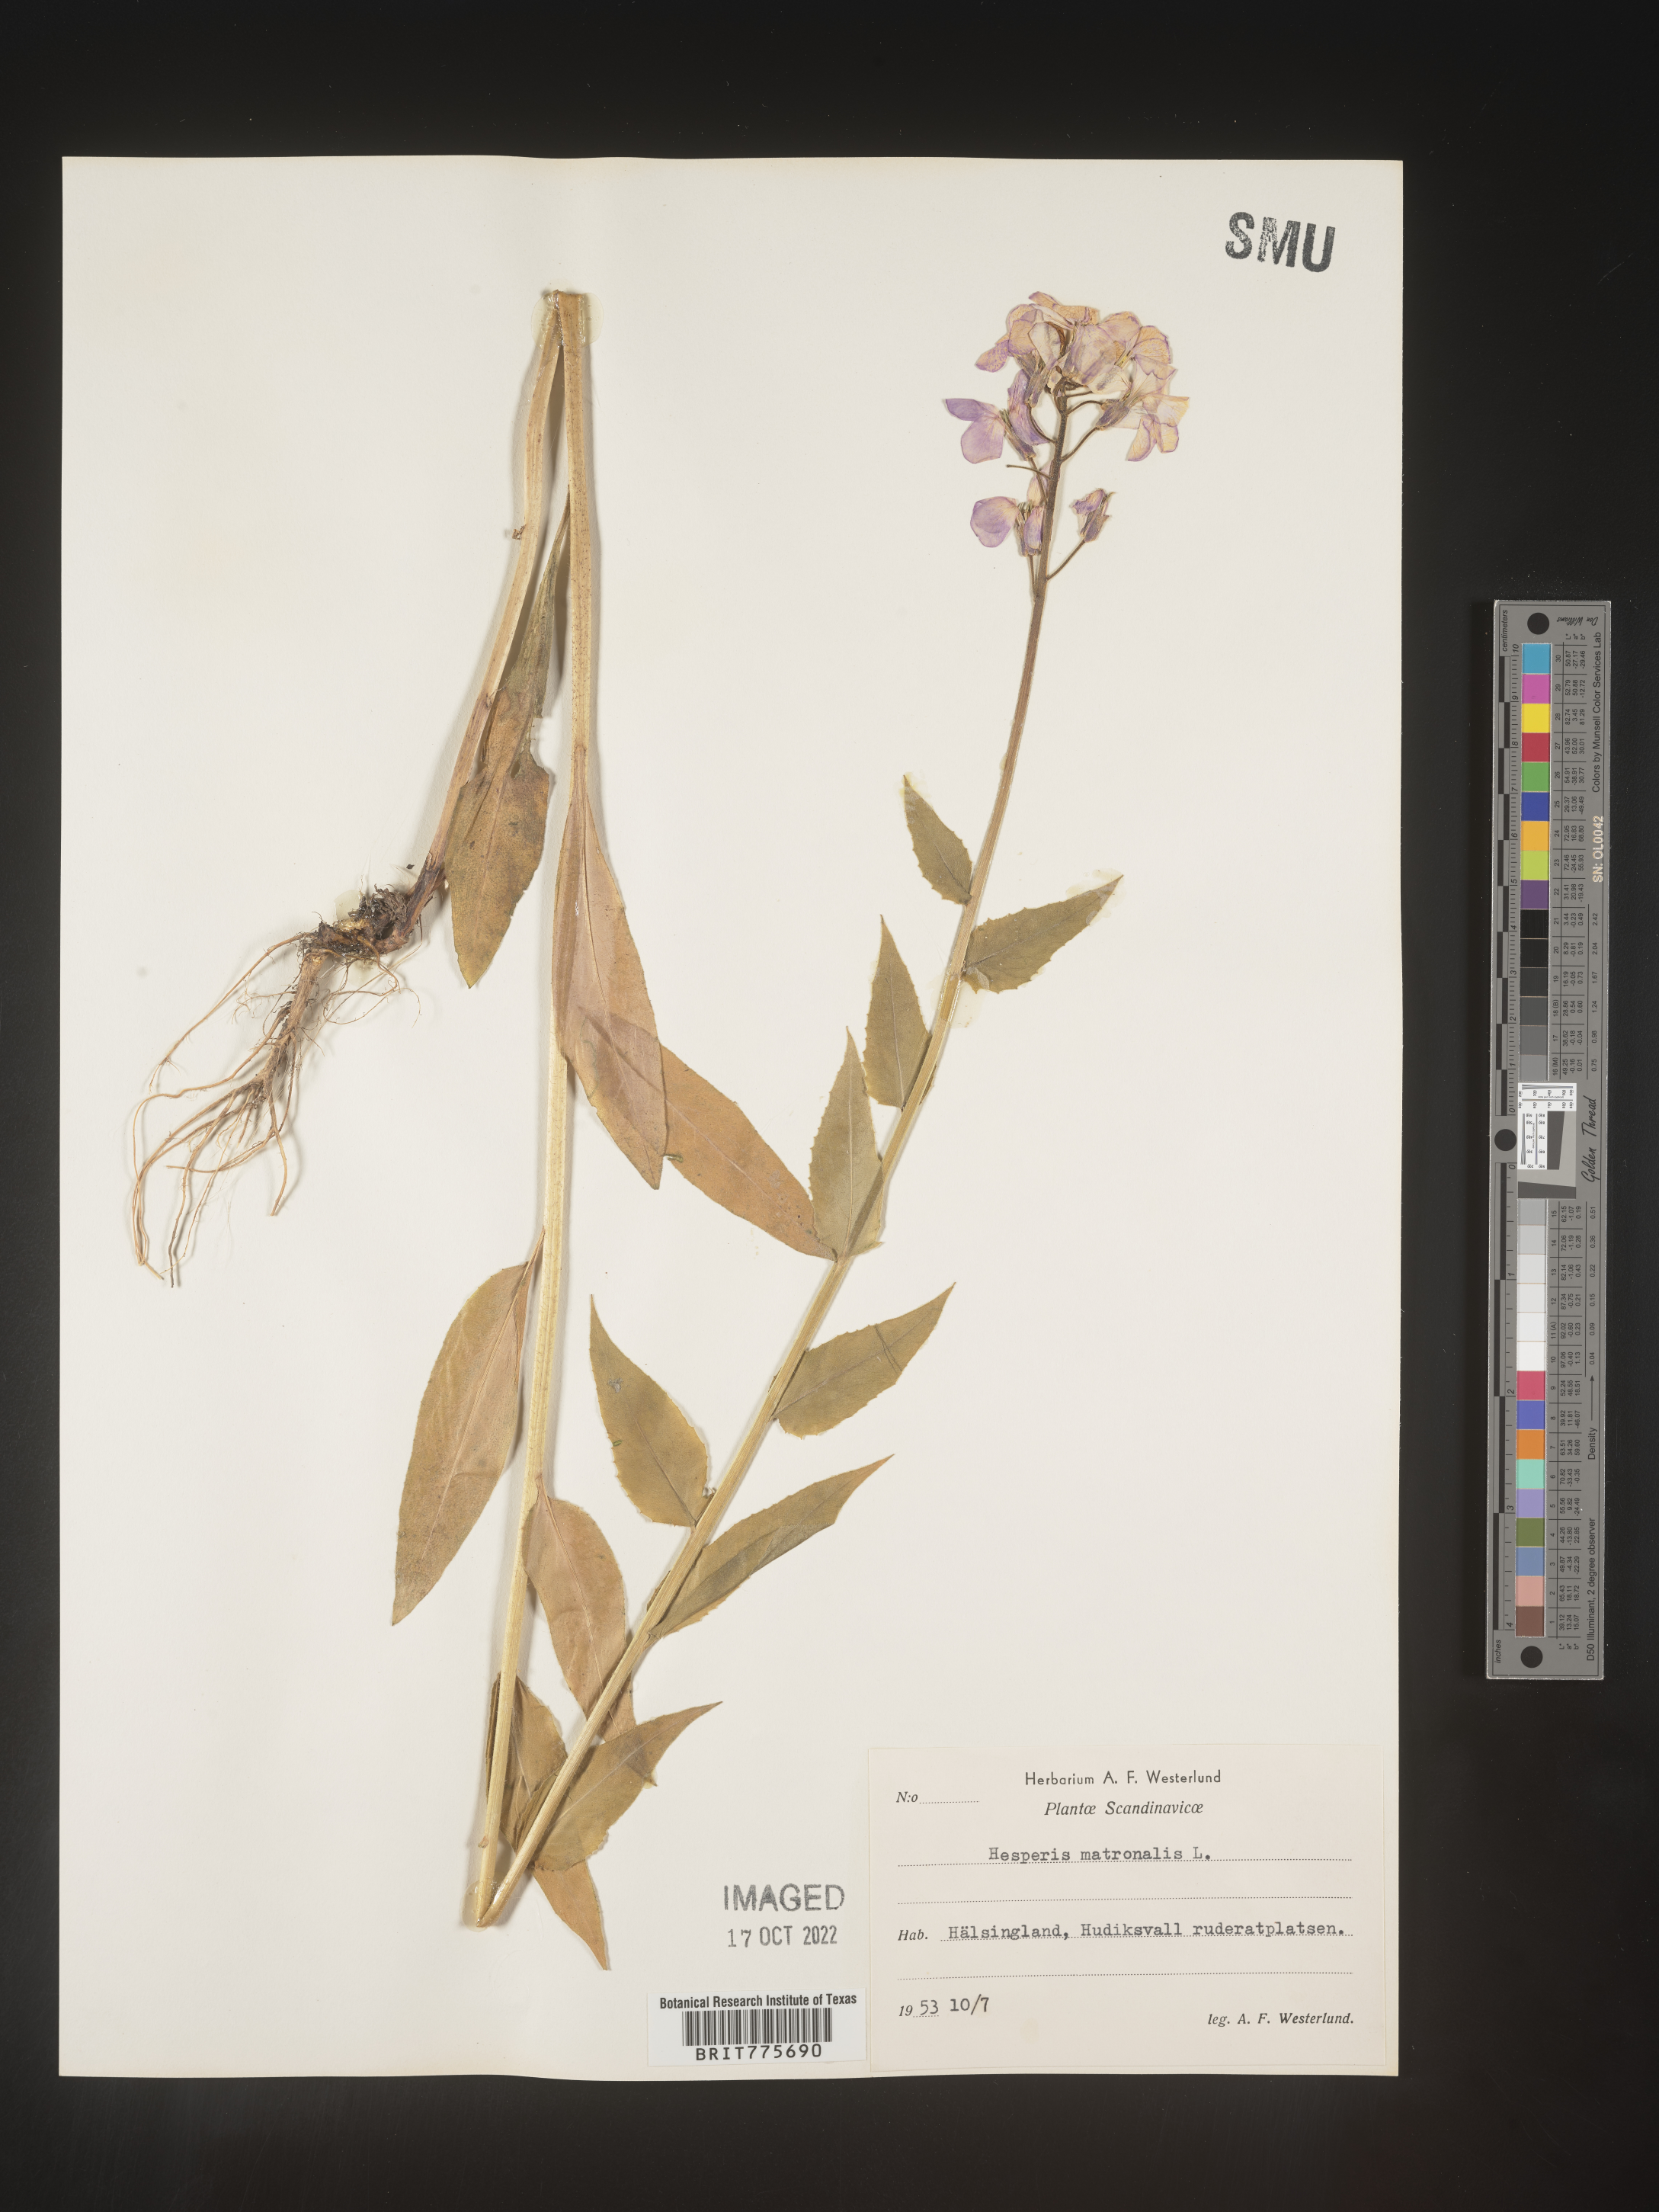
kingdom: Plantae
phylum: Tracheophyta
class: Magnoliopsida
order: Brassicales
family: Brassicaceae
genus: Hesperis
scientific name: Hesperis
